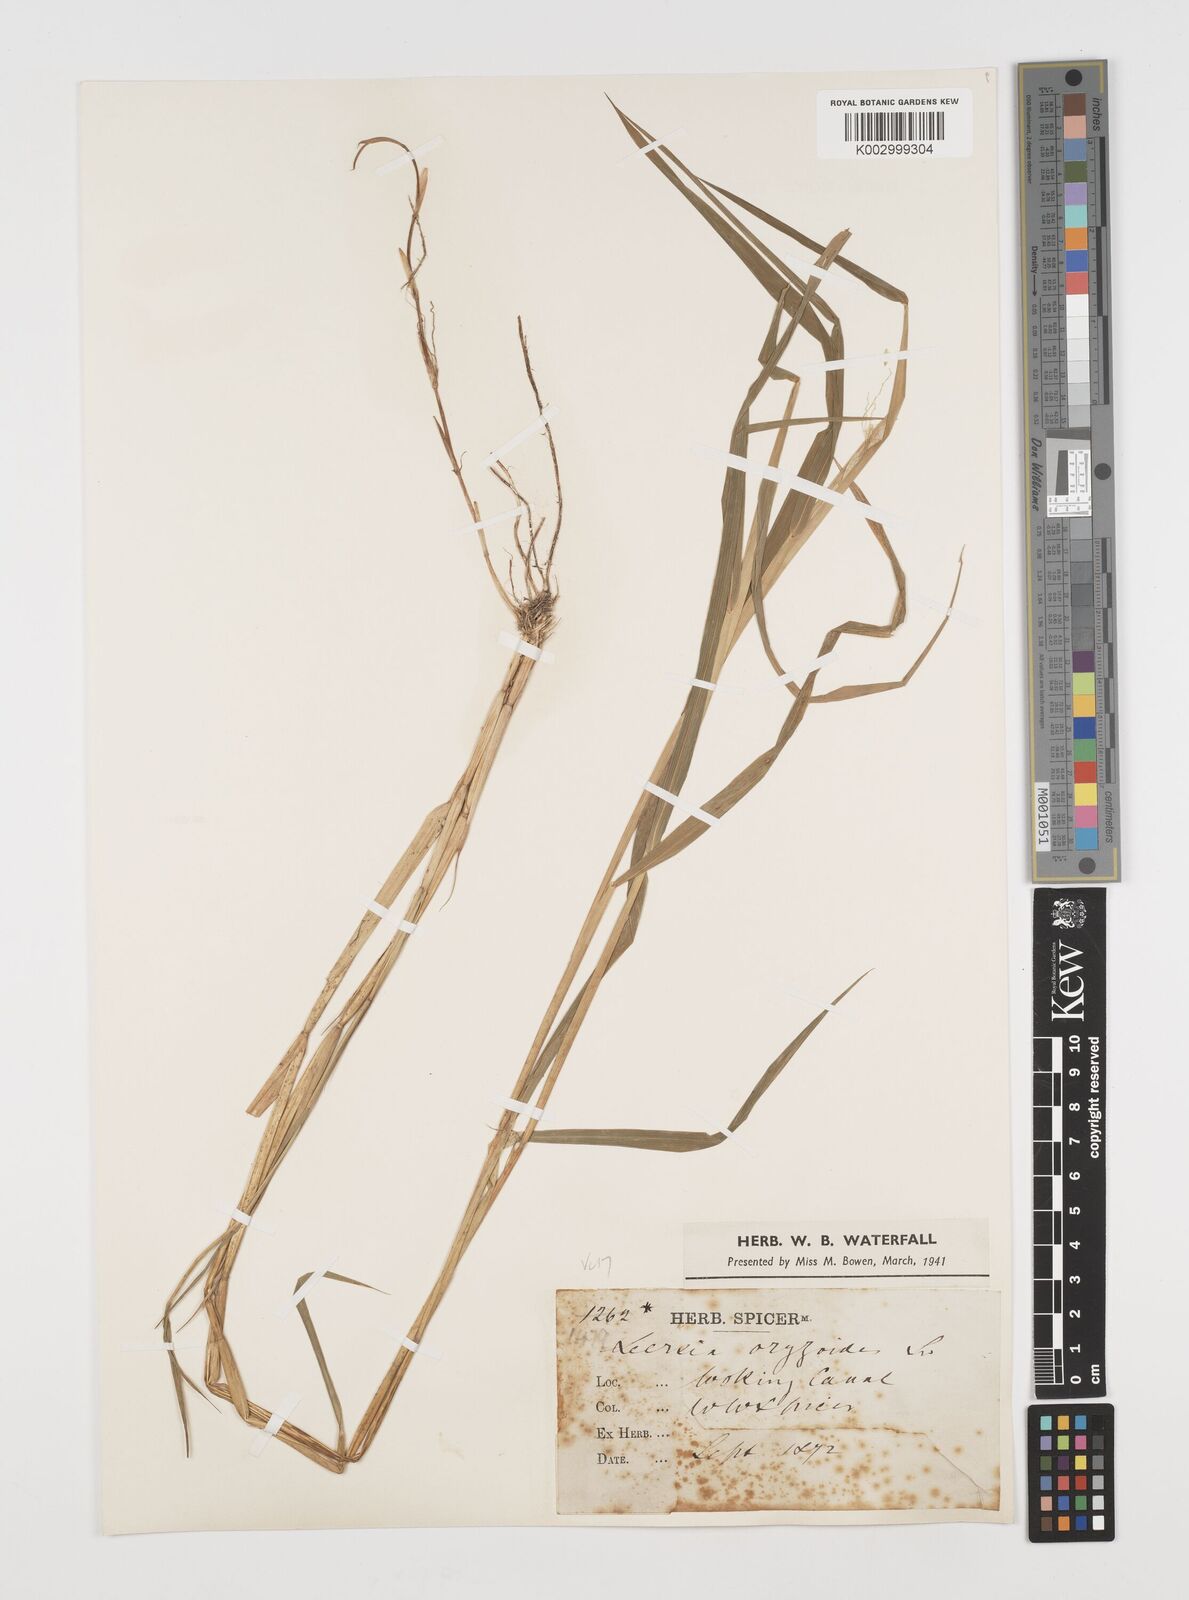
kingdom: Plantae
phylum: Tracheophyta
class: Liliopsida
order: Poales
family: Poaceae
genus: Leersia
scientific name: Leersia oryzoides
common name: Cut-grass
